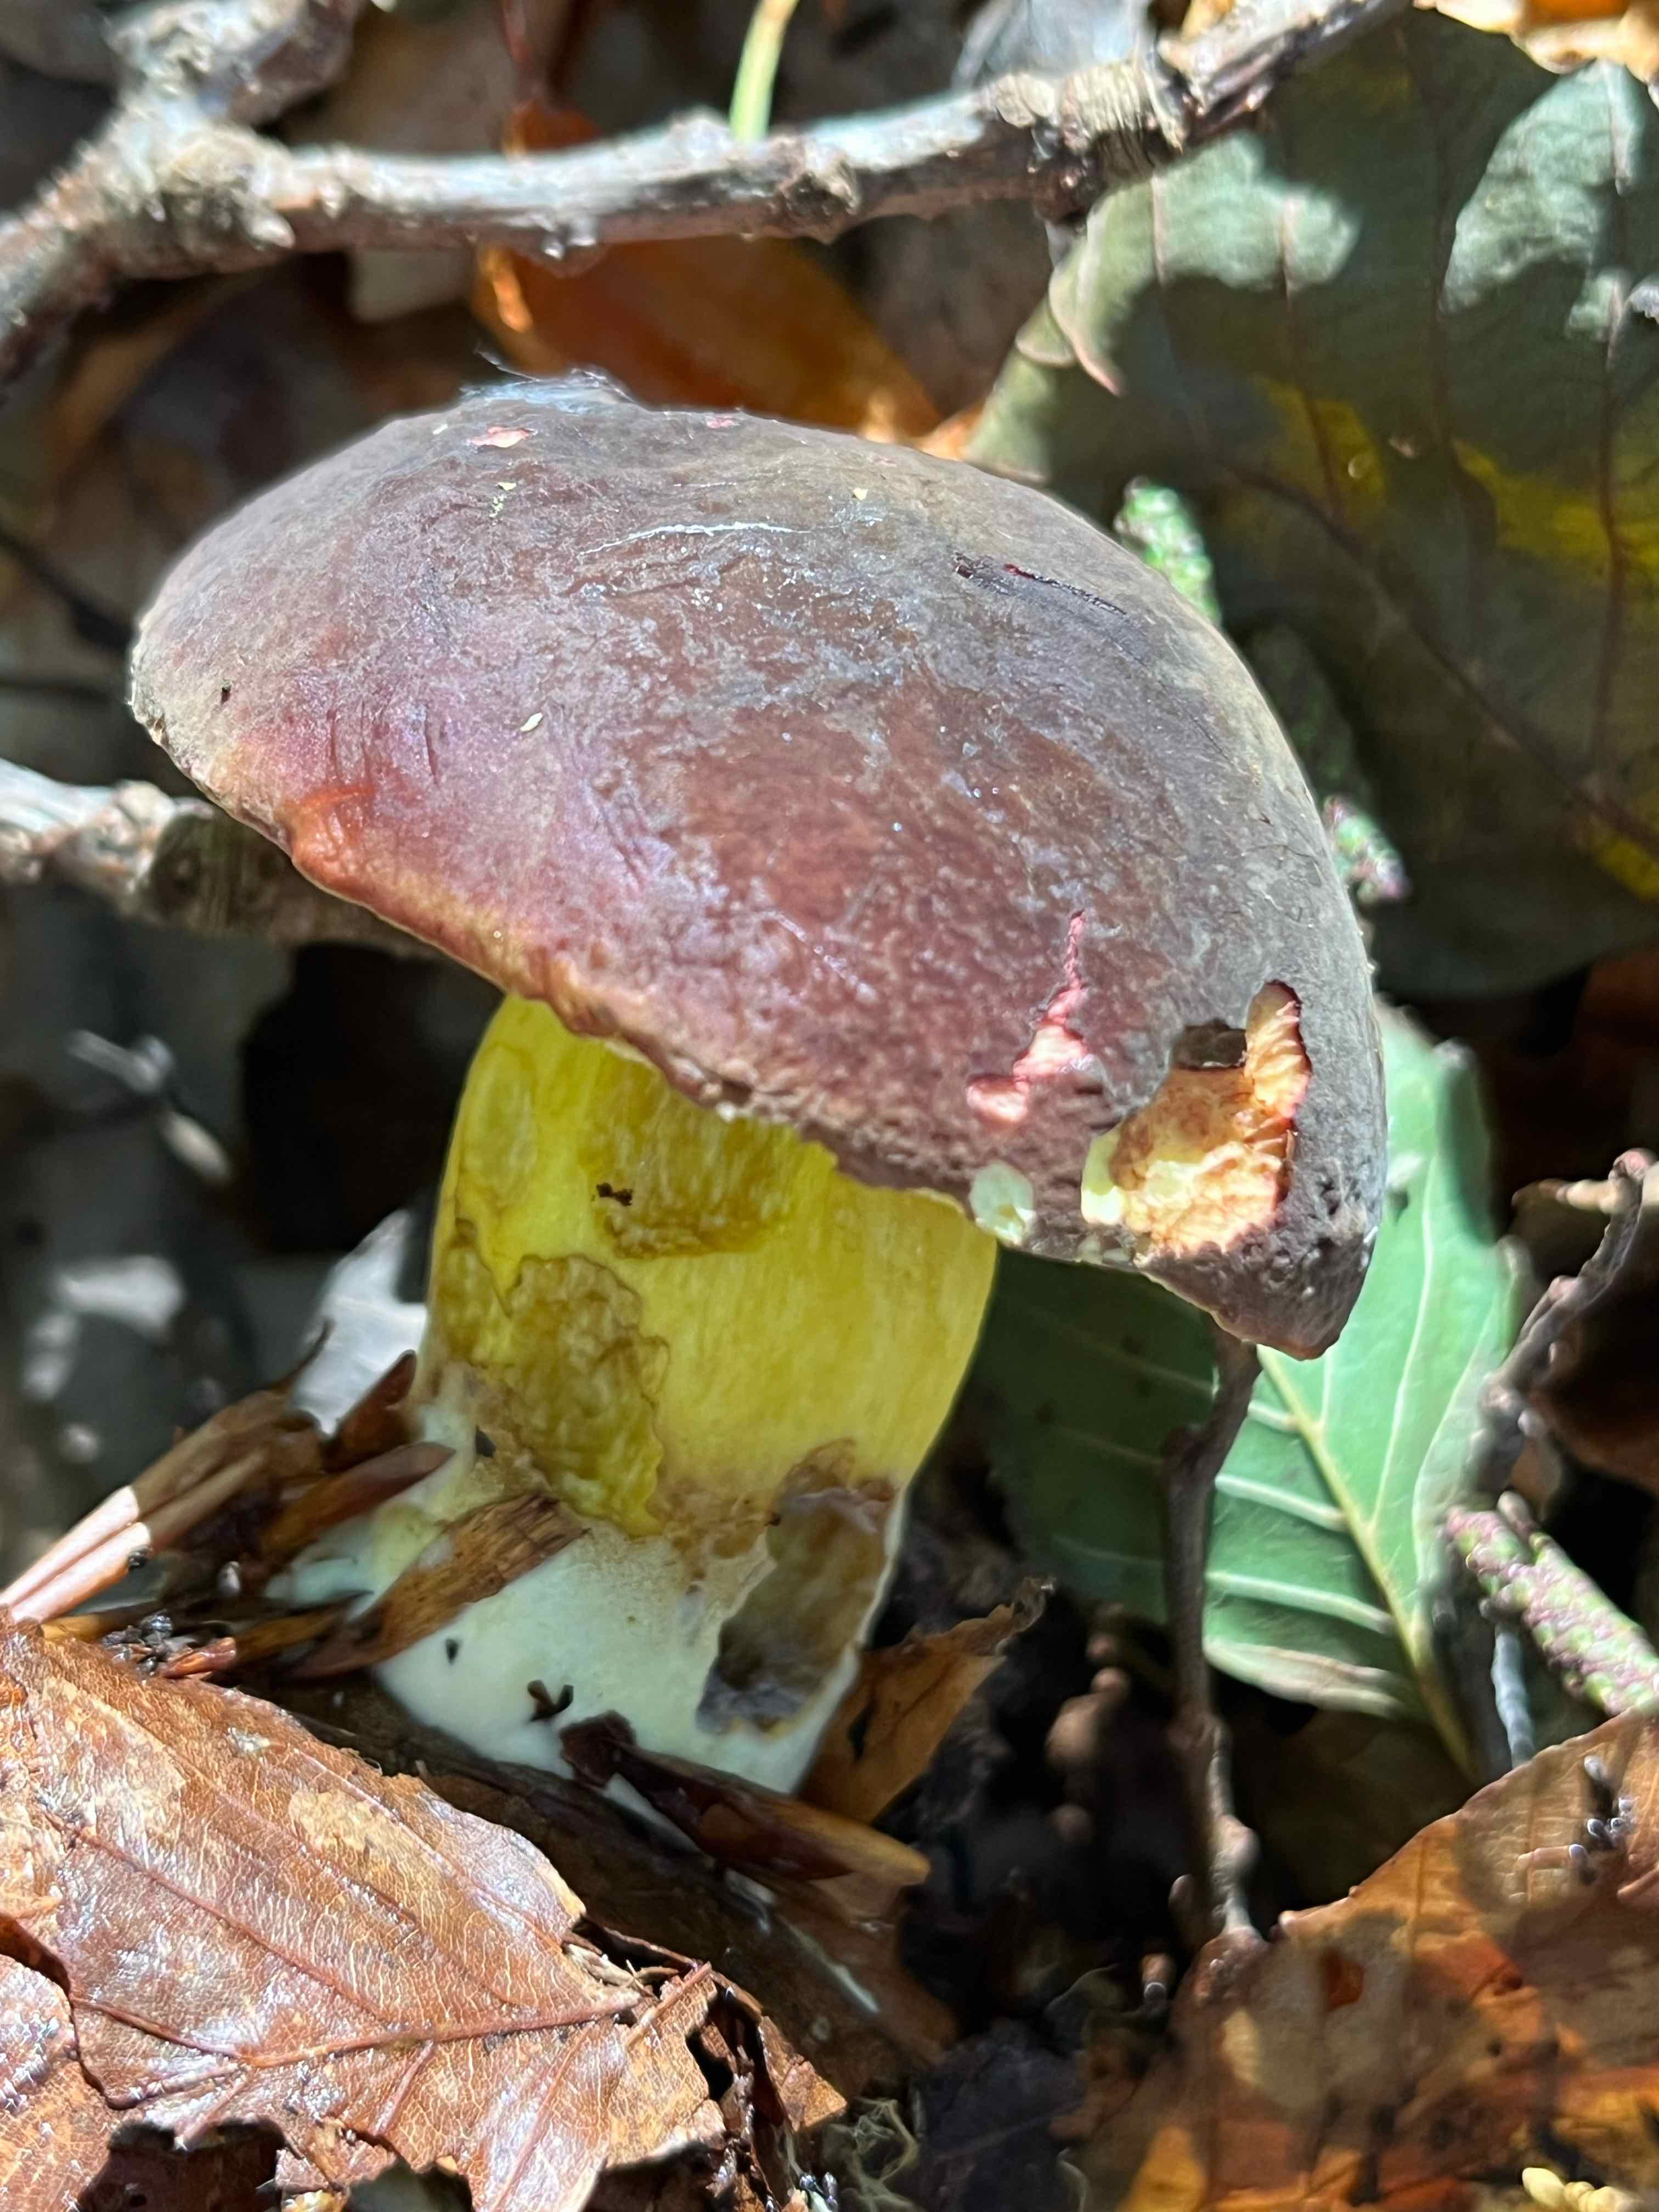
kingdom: Fungi
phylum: Basidiomycota
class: Agaricomycetes
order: Boletales
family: Boletaceae
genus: Xerocomellus
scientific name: Xerocomellus pruinatus
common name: dugget rørhat
